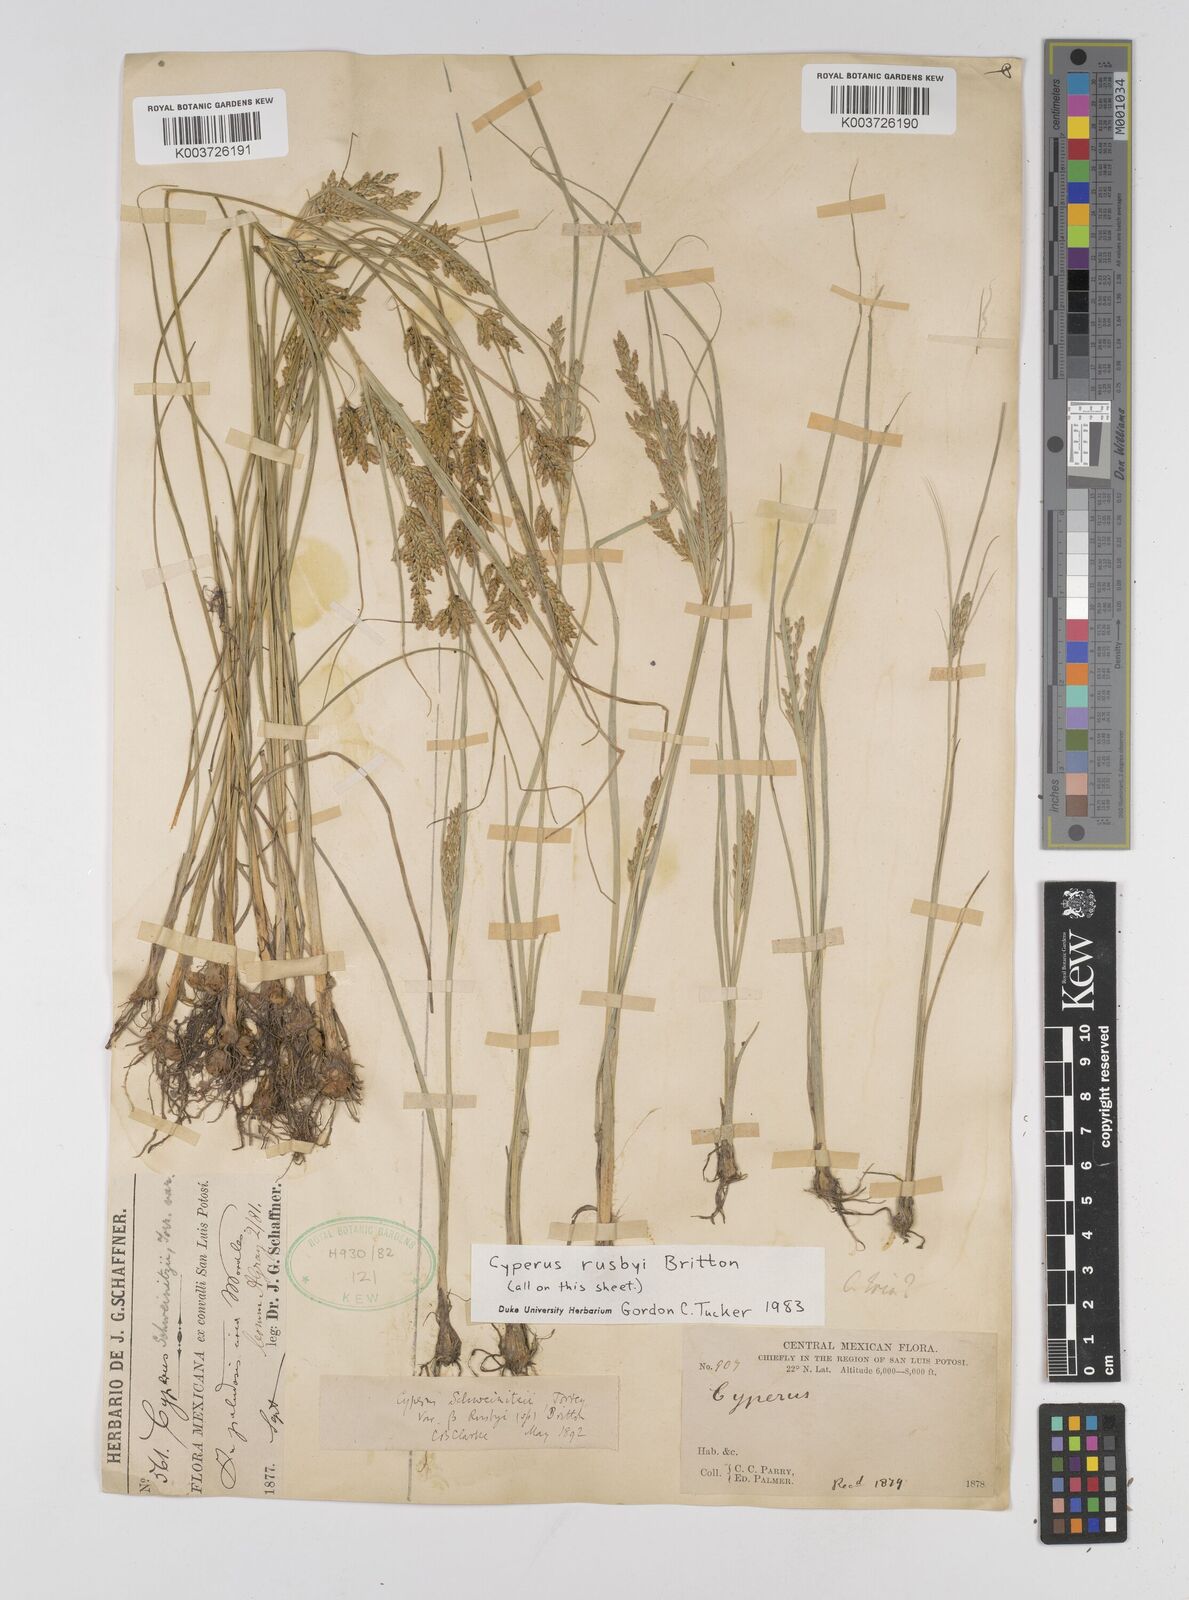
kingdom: Plantae
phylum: Tracheophyta
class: Liliopsida
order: Poales
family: Cyperaceae
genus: Cyperus
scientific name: Cyperus sphaerolepis
